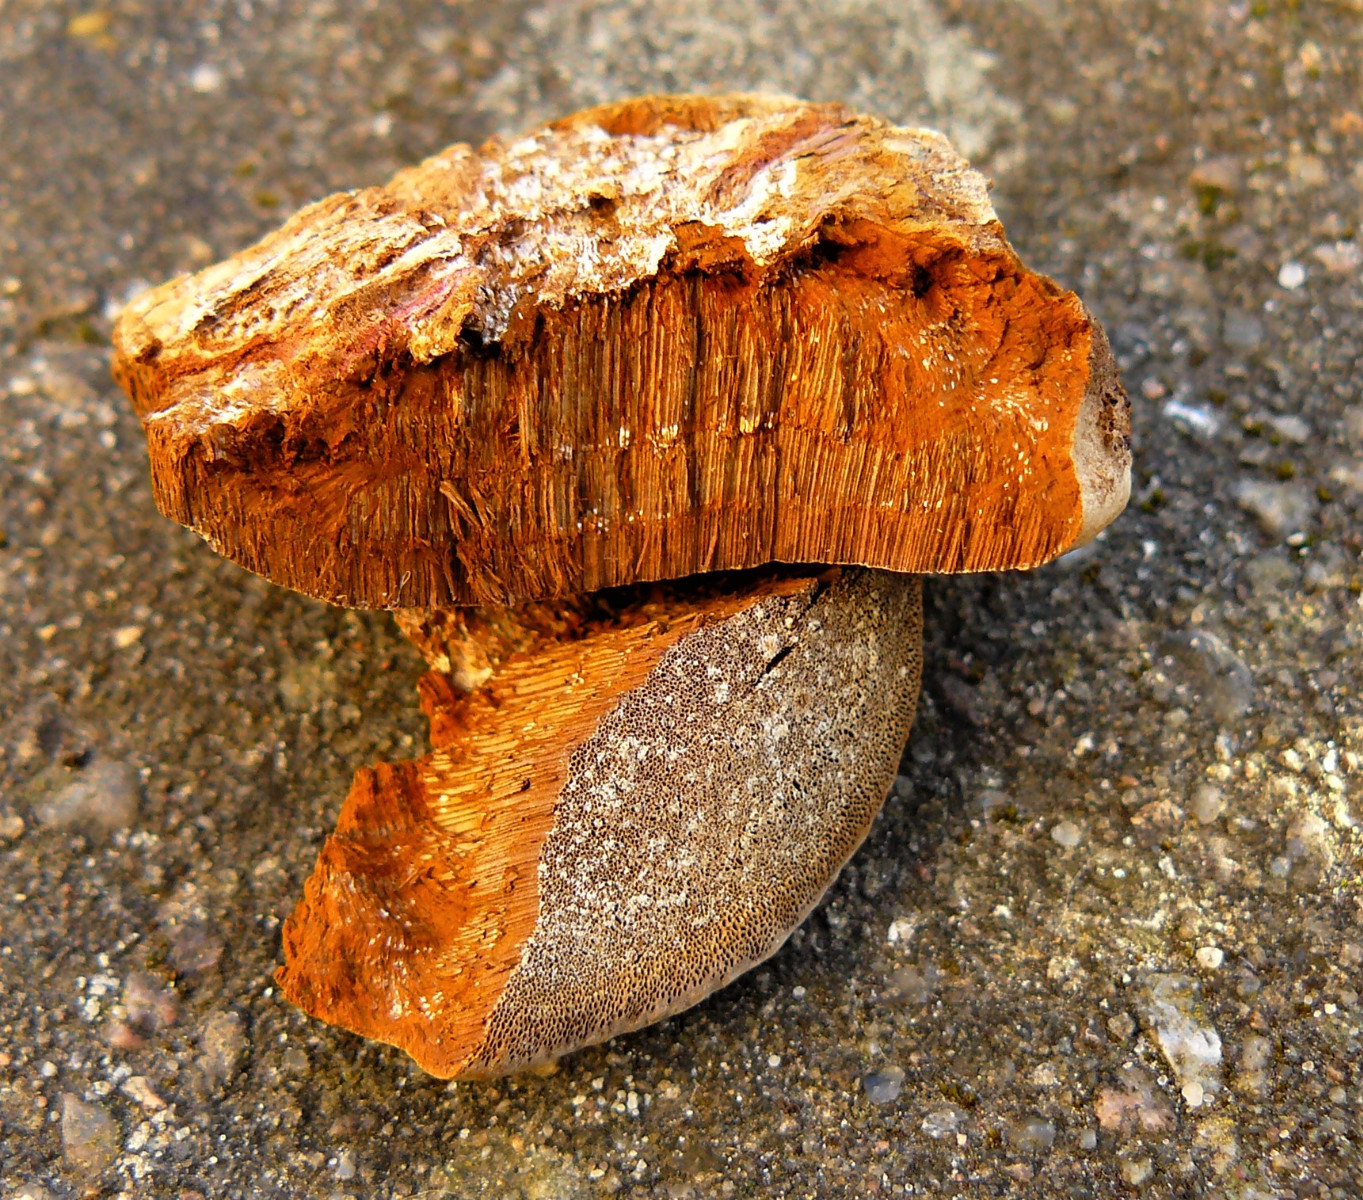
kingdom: Fungi
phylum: Basidiomycota
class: Agaricomycetes
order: Hymenochaetales
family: Hymenochaetaceae
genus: Phellinus
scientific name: Phellinus
